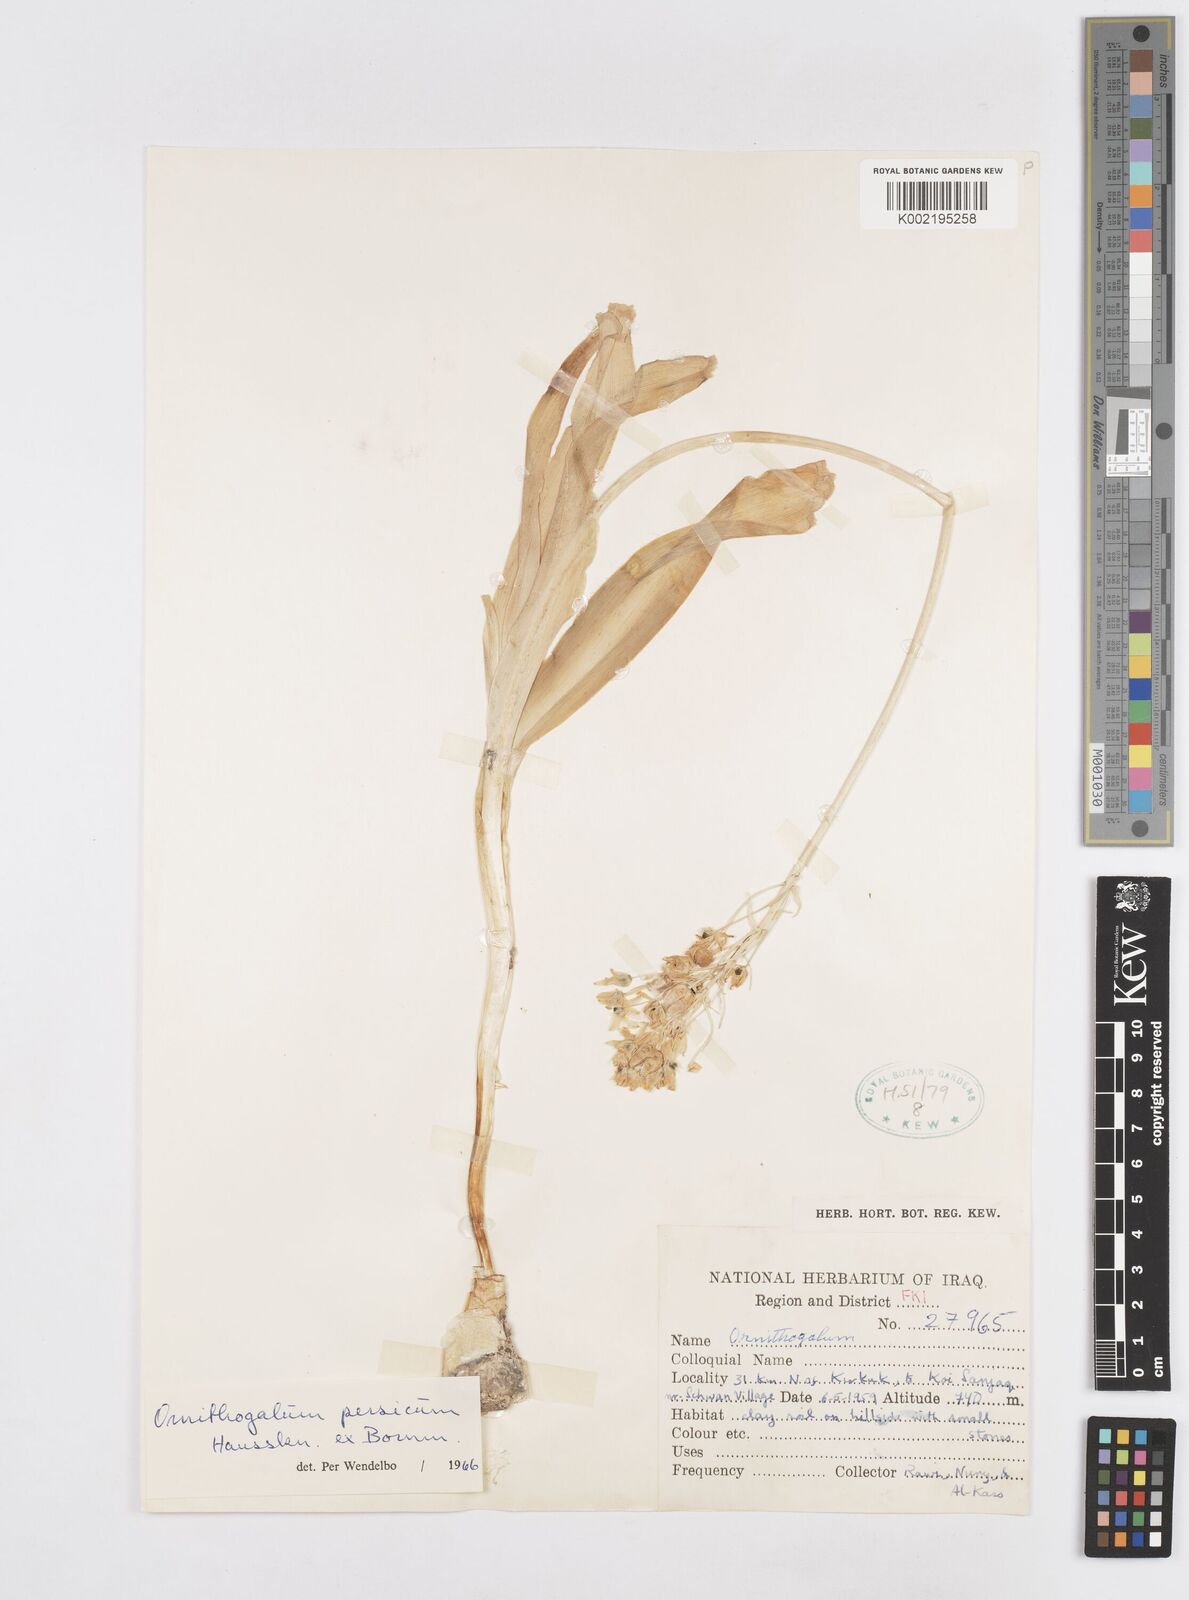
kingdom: Plantae
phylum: Tracheophyta
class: Liliopsida
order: Asparagales
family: Asparagaceae
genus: Ornithogalum
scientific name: Ornithogalum persicum
